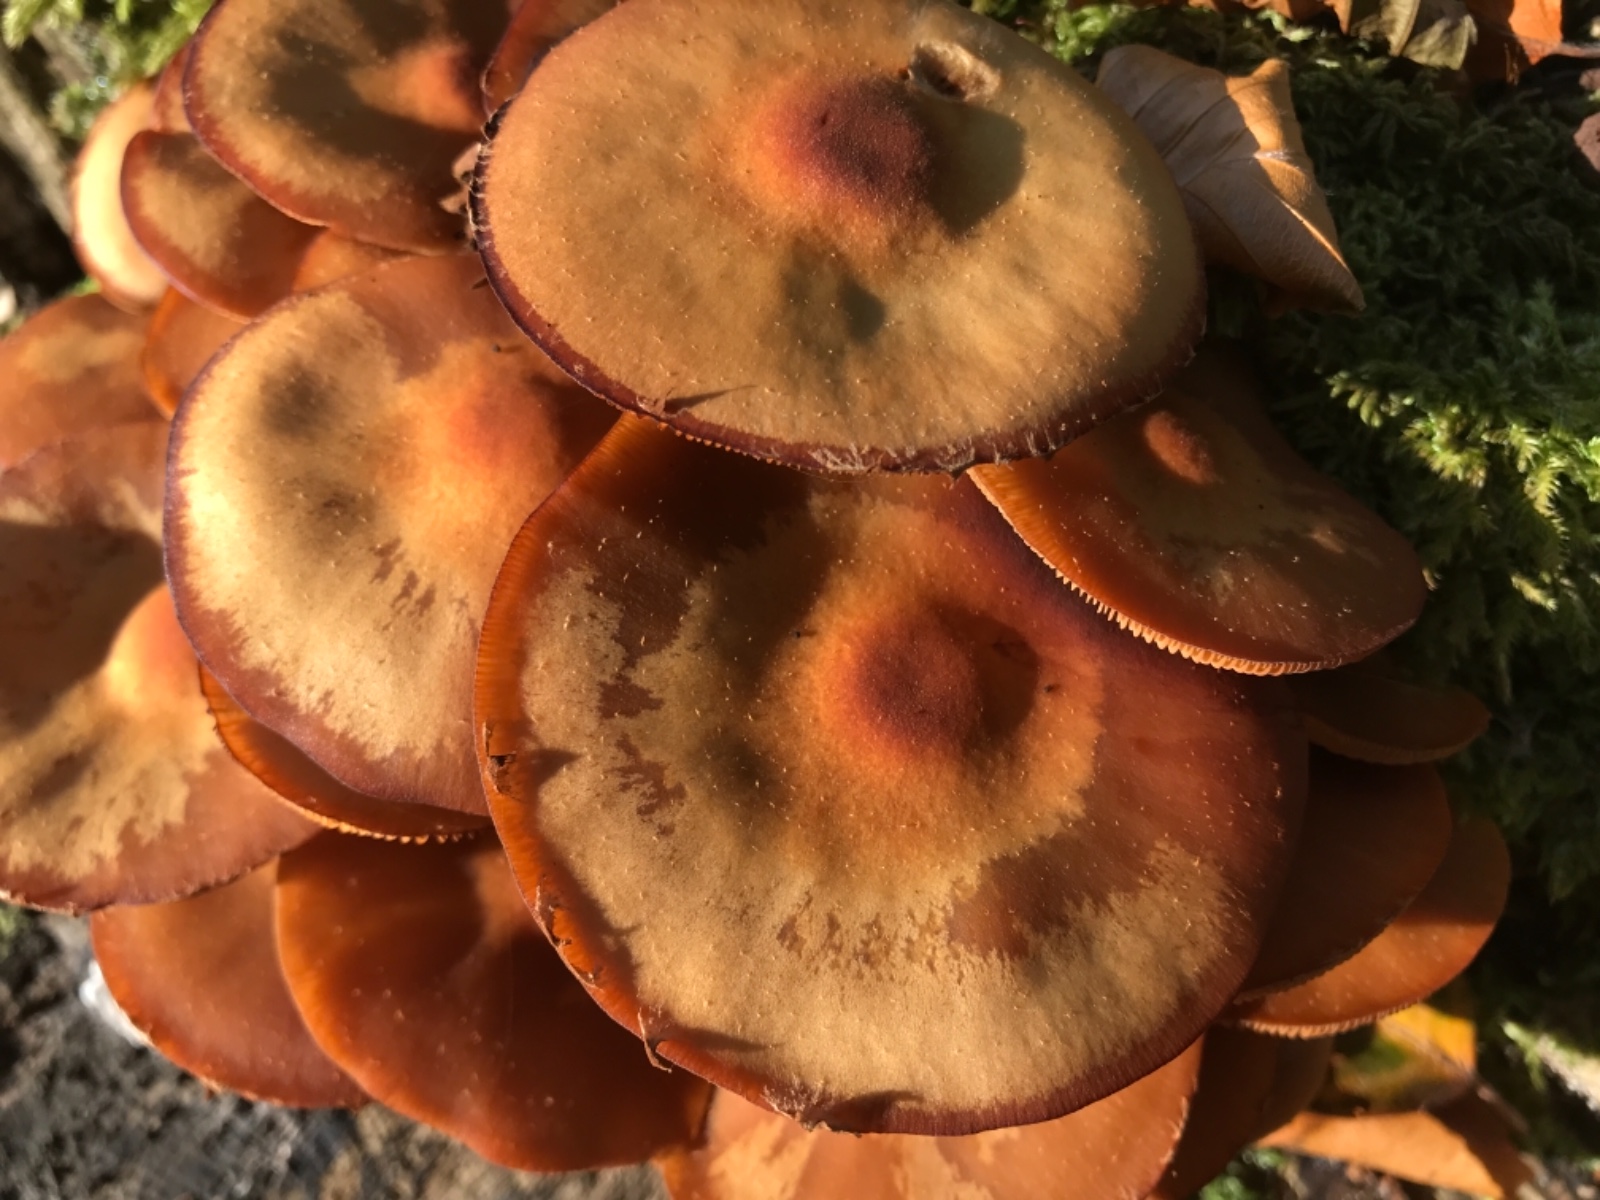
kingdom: Fungi
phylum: Basidiomycota
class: Agaricomycetes
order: Agaricales
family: Strophariaceae
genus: Kuehneromyces
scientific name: Kuehneromyces mutabilis
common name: foranderlig skælhat
